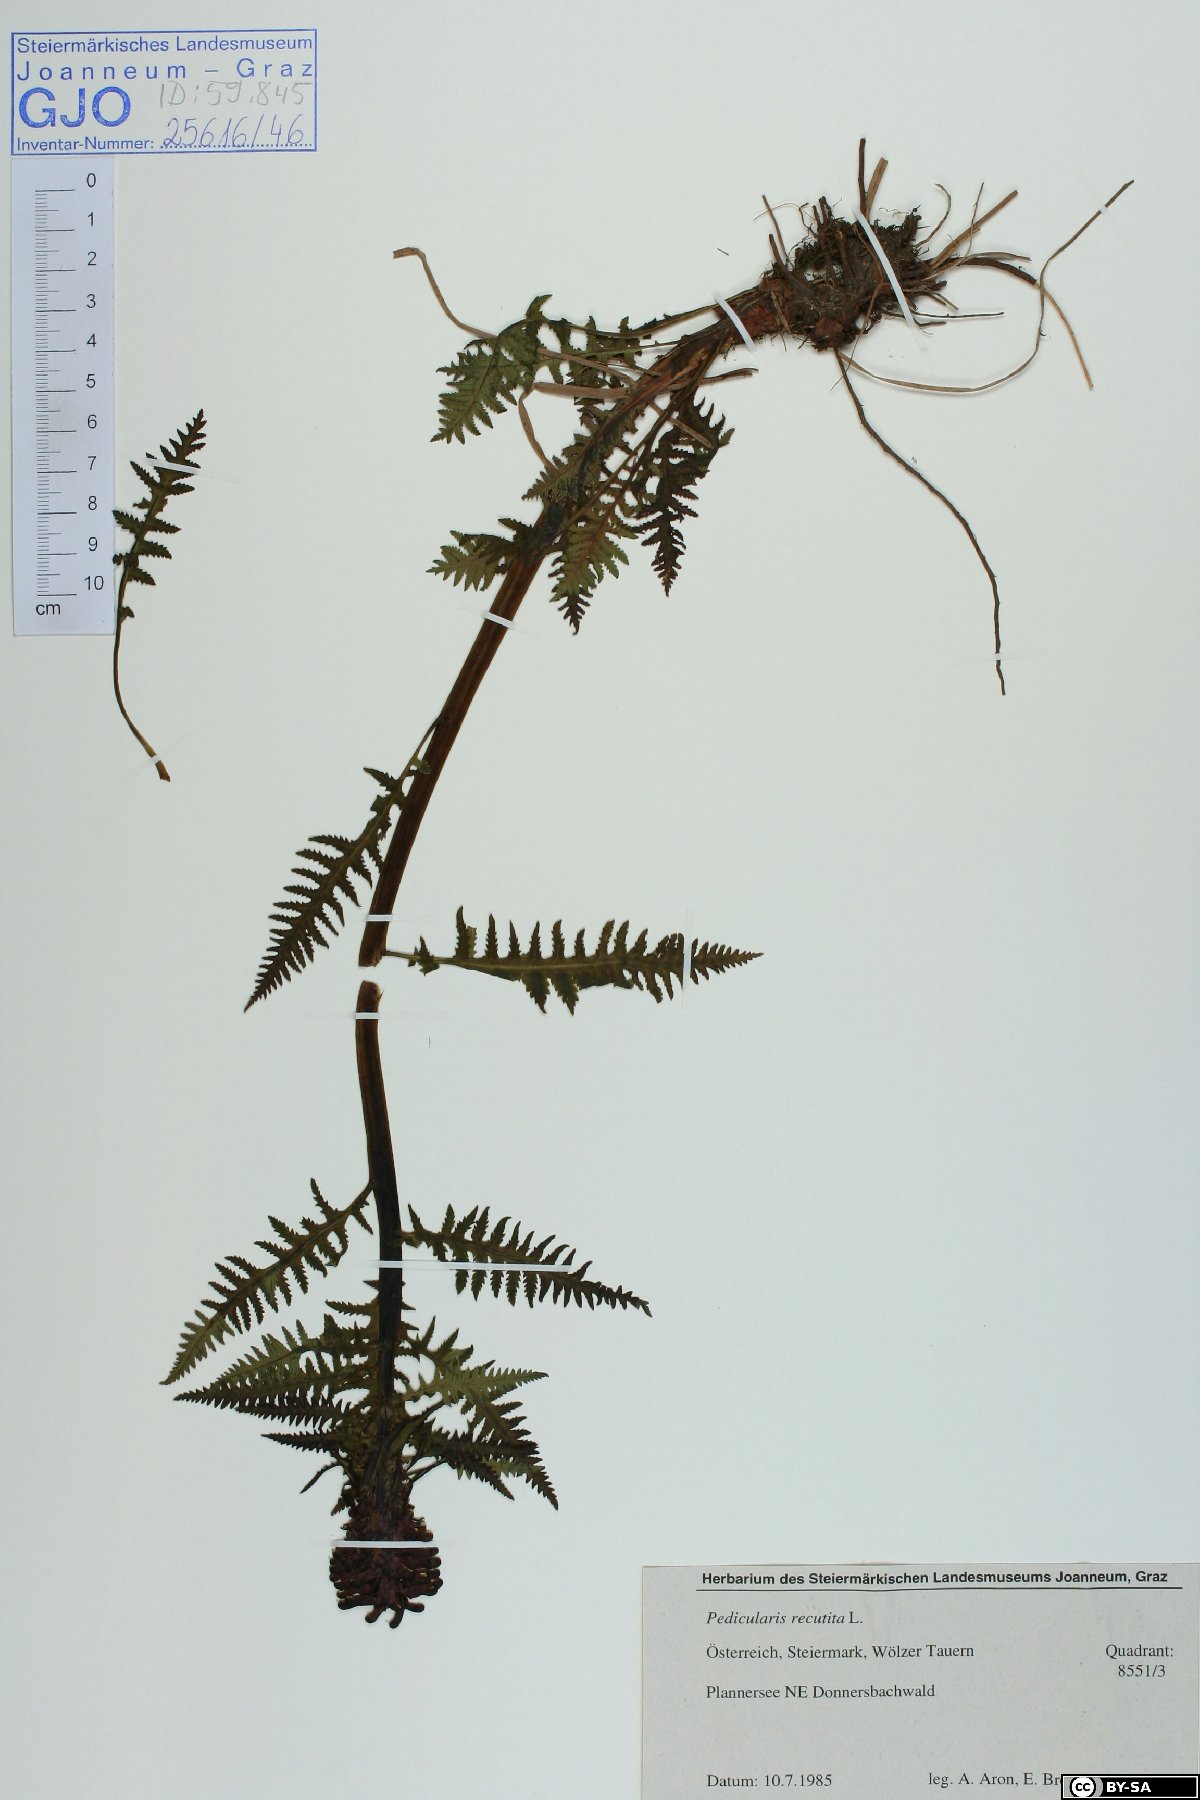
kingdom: Plantae
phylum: Tracheophyta
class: Magnoliopsida
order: Lamiales
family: Orobanchaceae
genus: Pedicularis
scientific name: Pedicularis recutita
